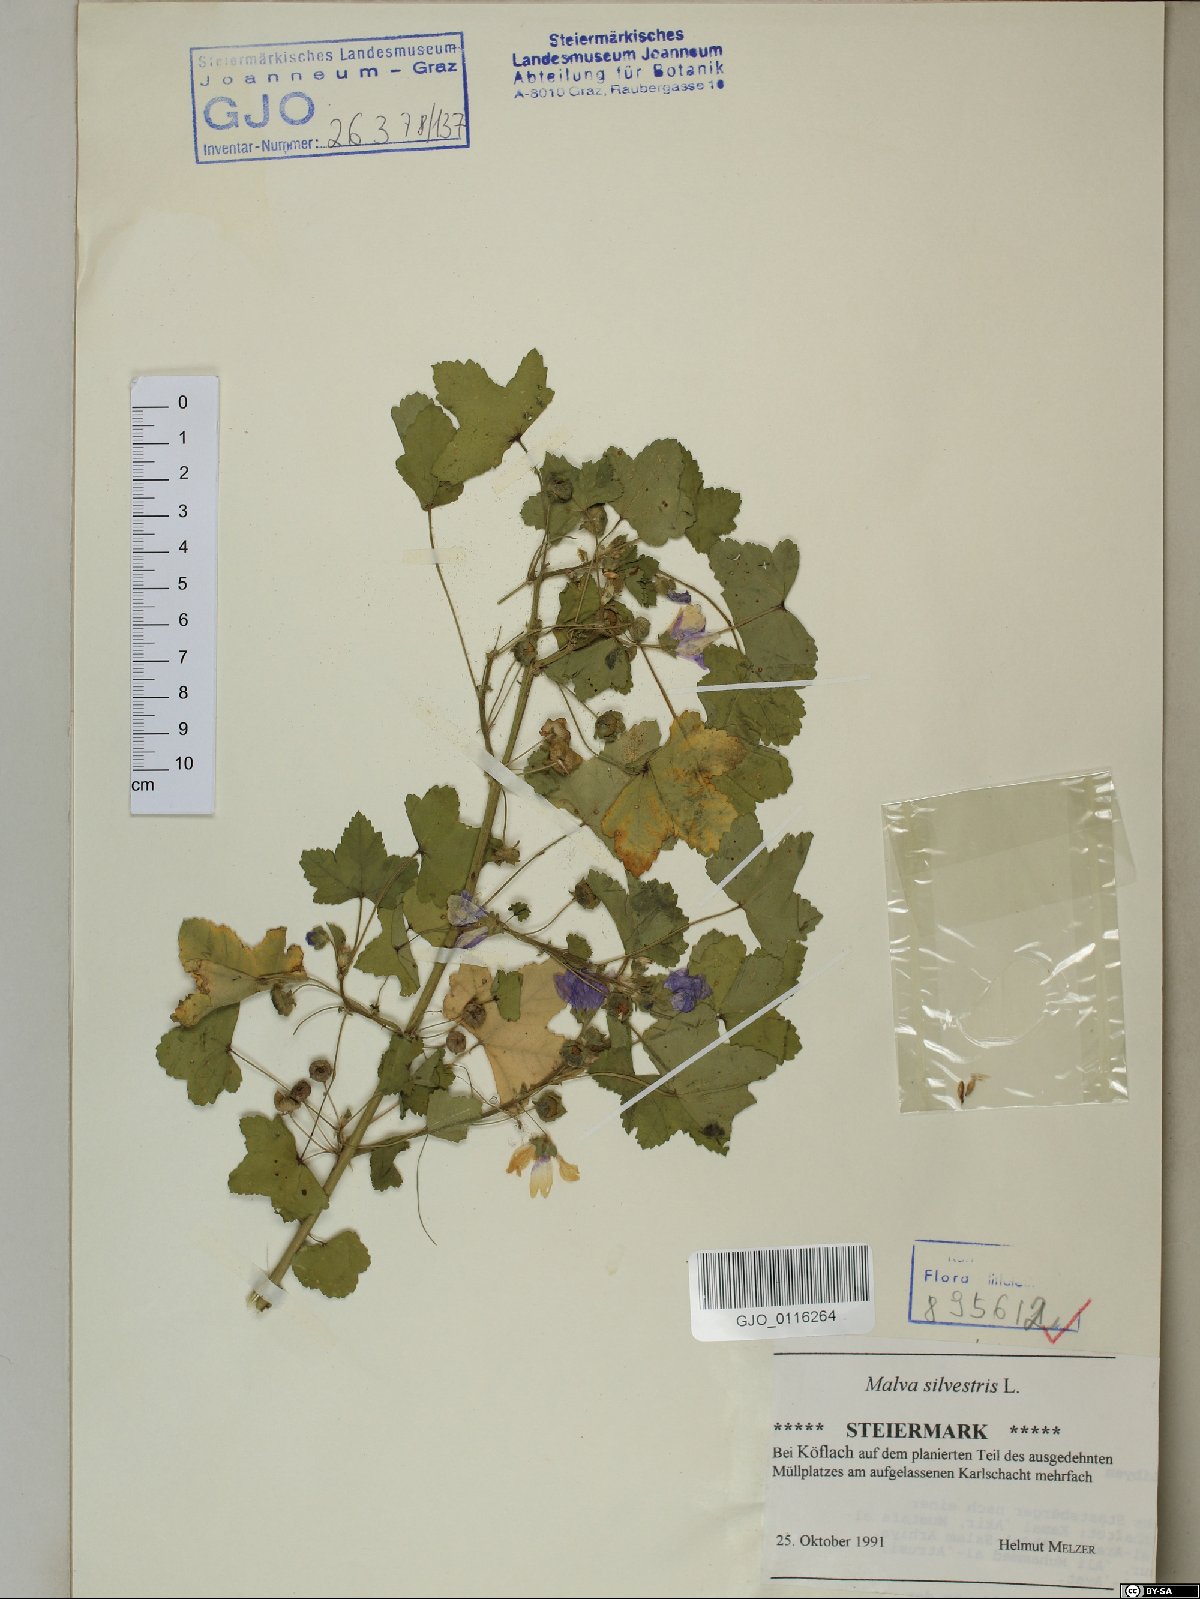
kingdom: Plantae
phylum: Tracheophyta
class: Magnoliopsida
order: Malvales
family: Malvaceae
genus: Malva
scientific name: Malva sylvestris
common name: Common mallow
